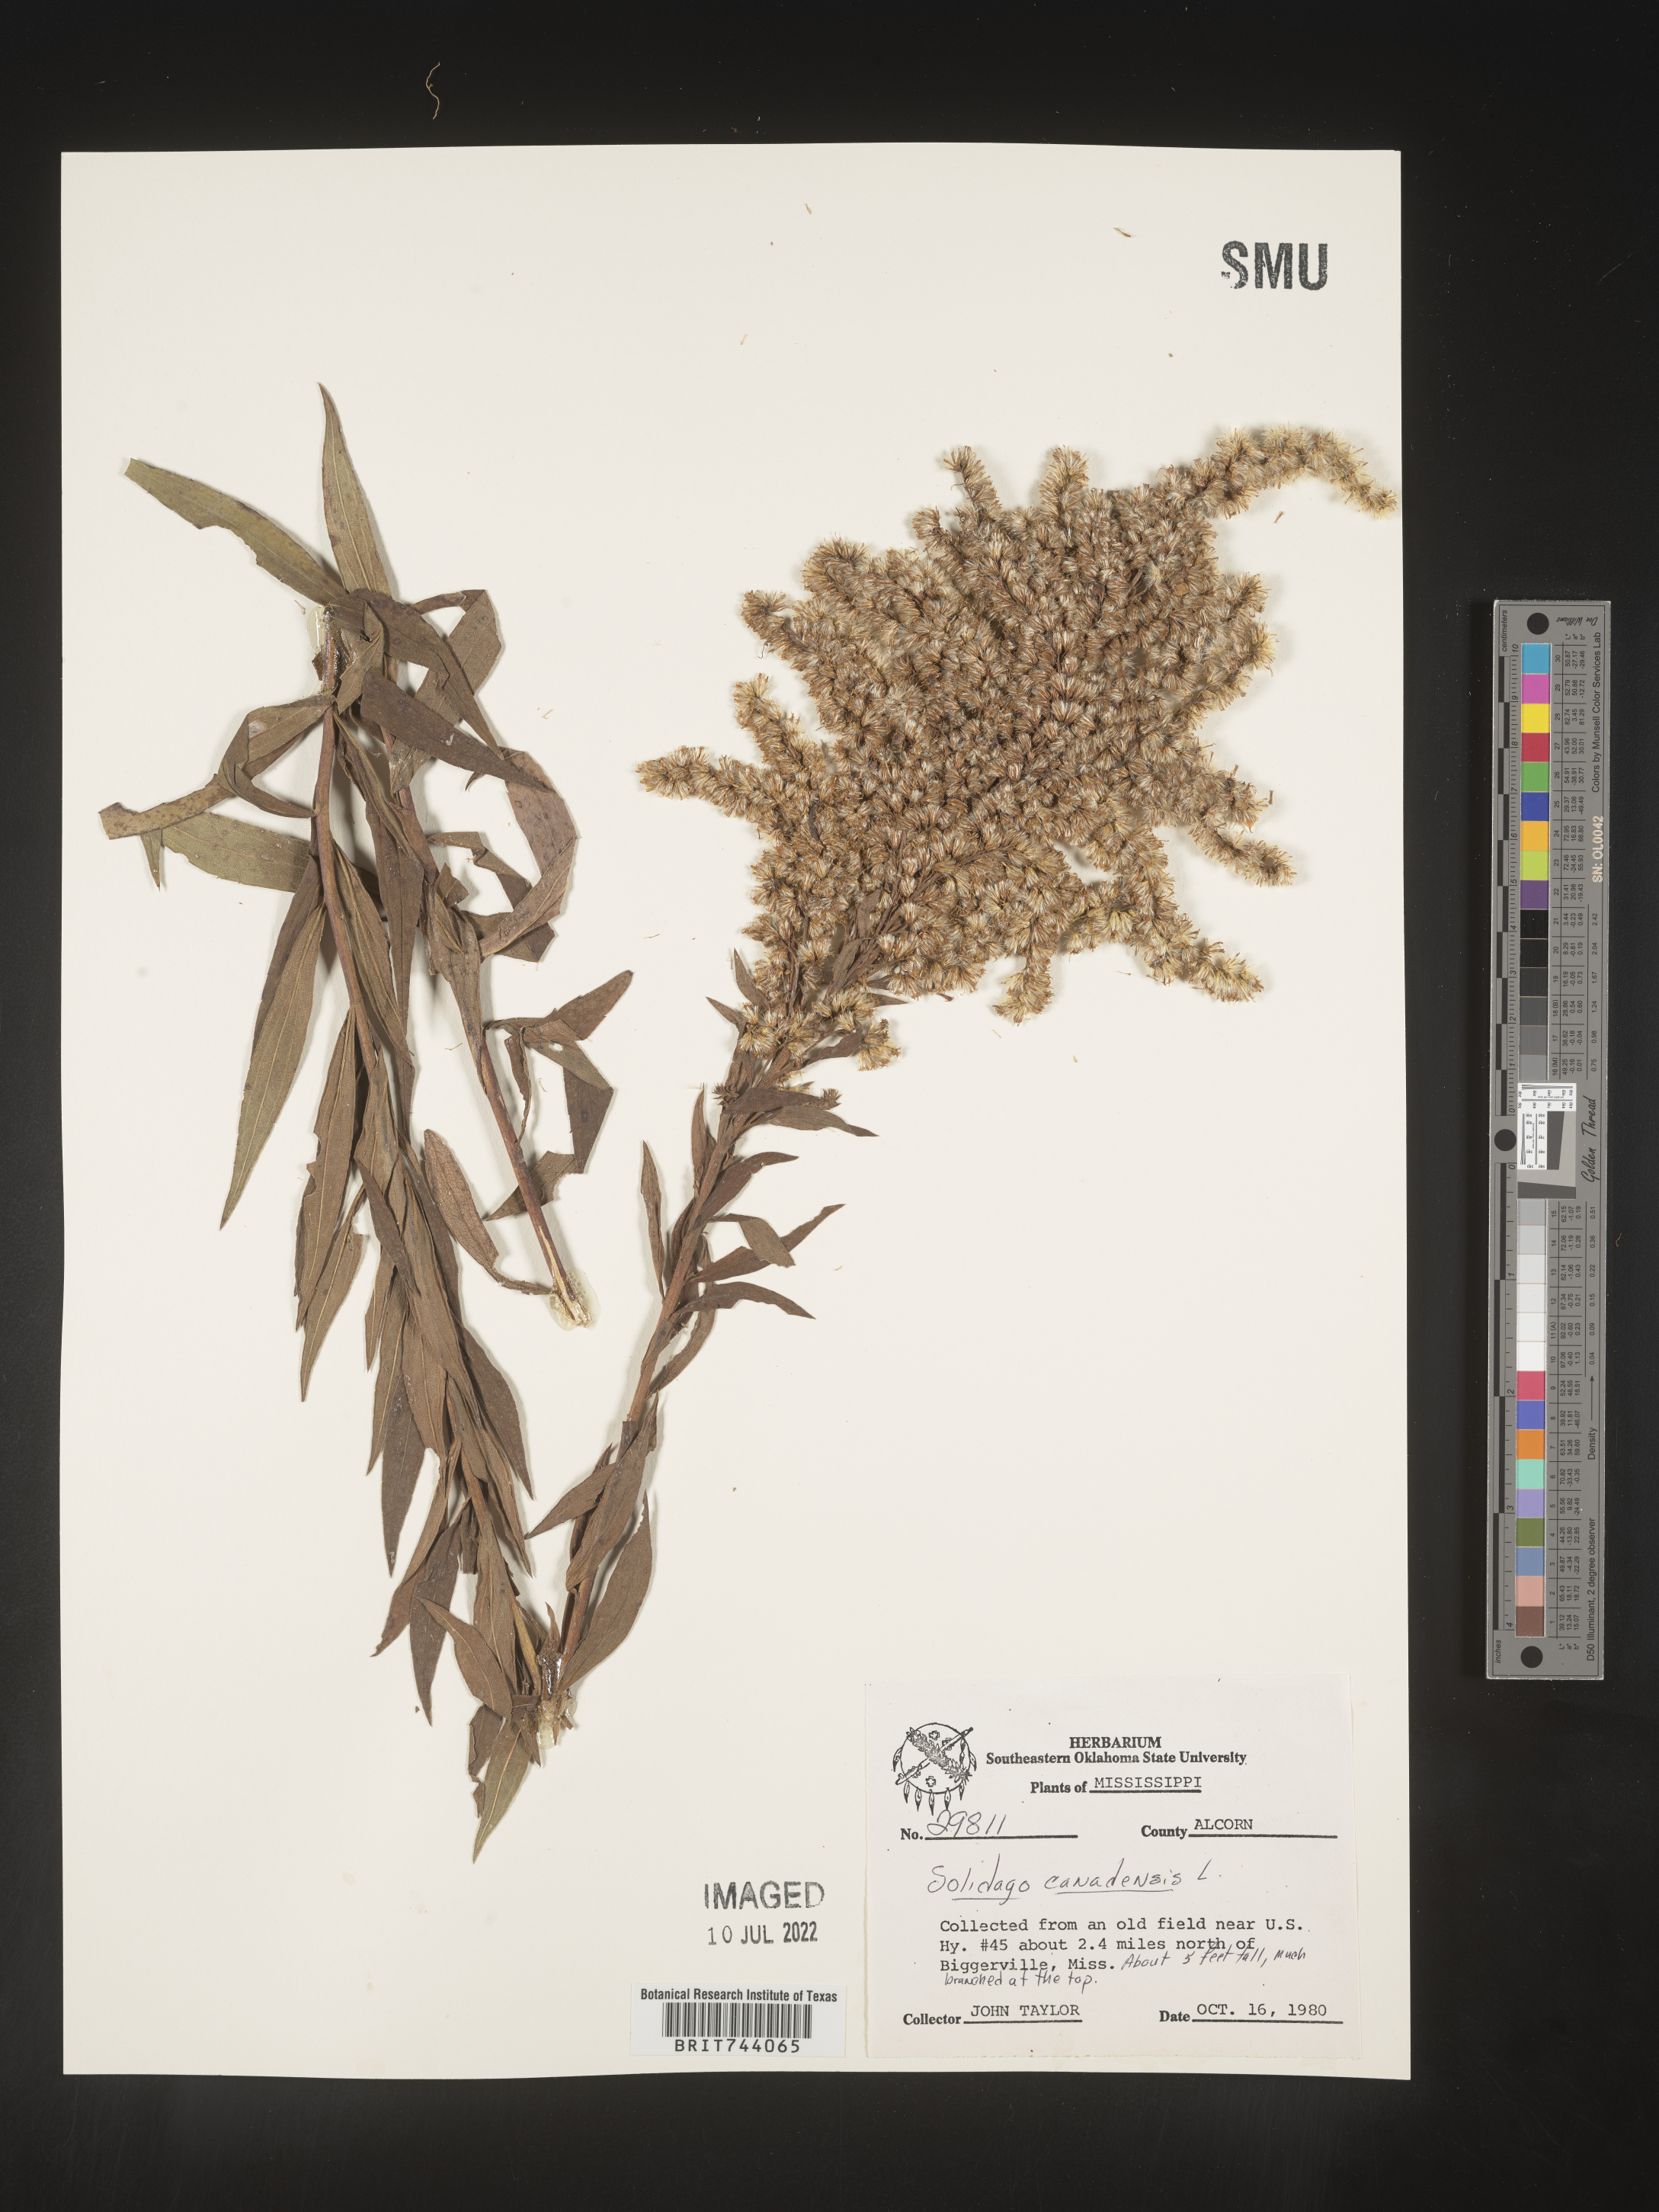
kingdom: Plantae
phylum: Tracheophyta
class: Magnoliopsida
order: Asterales
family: Asteraceae
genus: Solidago
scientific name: Solidago altissima
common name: Late goldenrod
